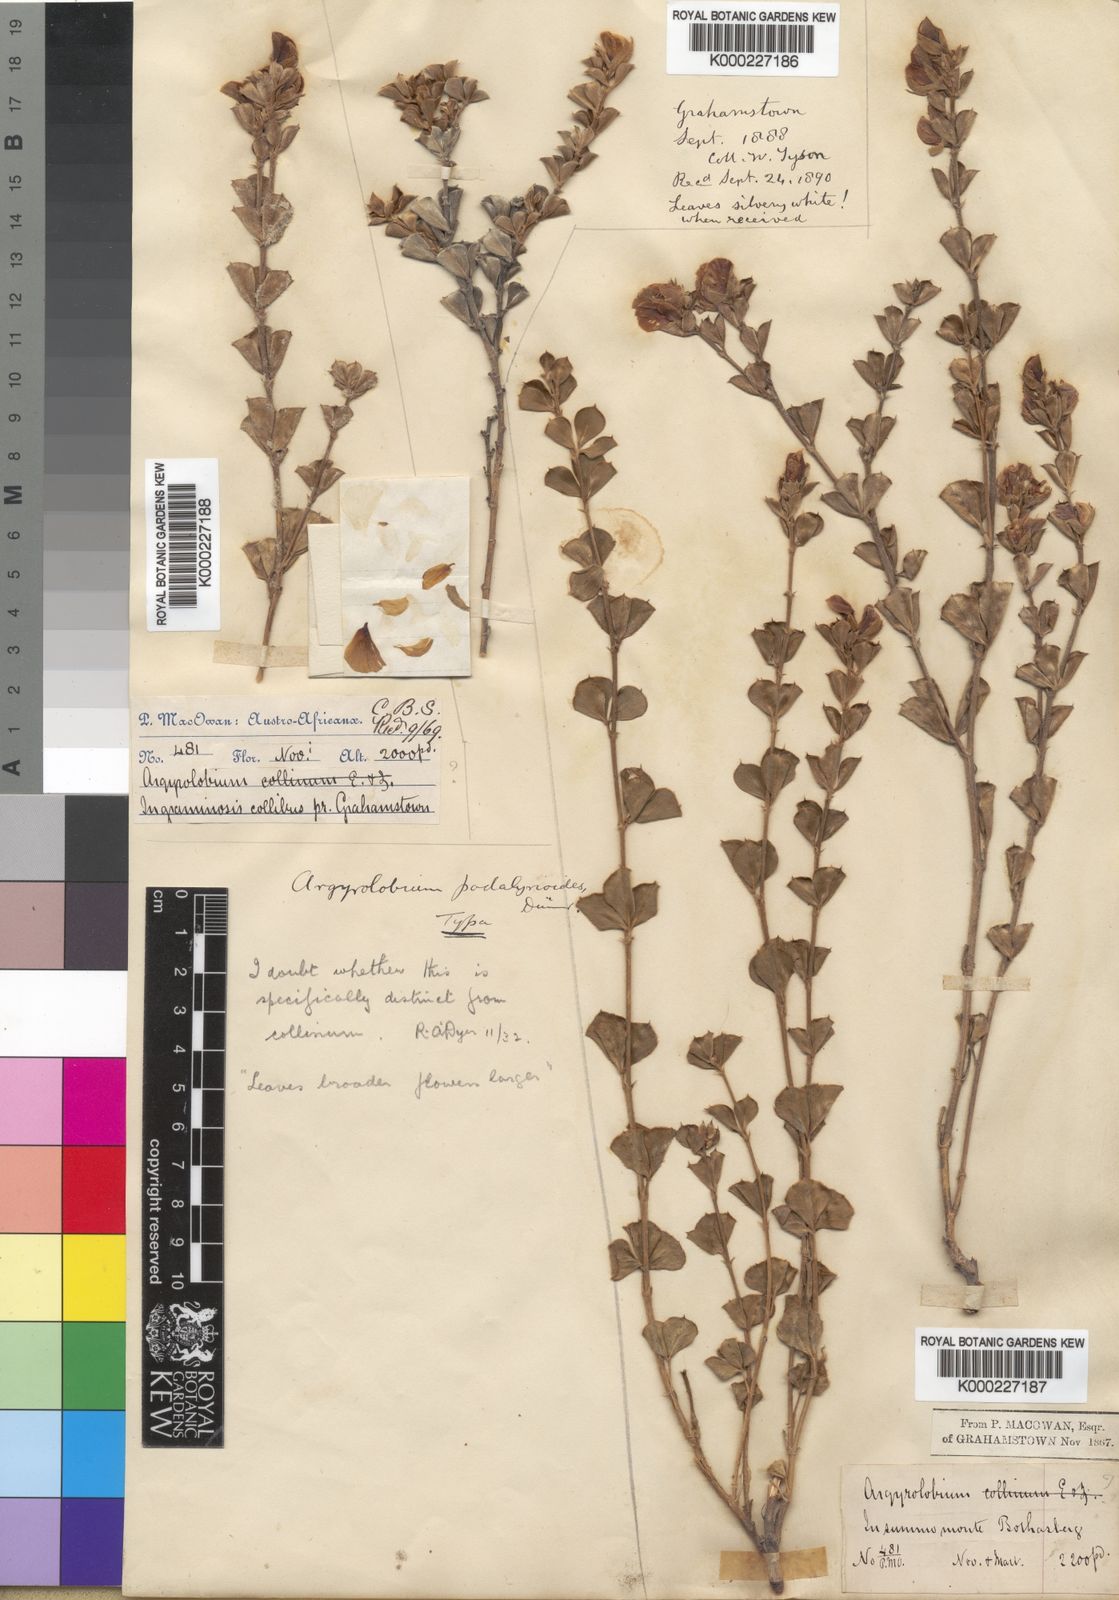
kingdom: Plantae
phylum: Tracheophyta
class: Magnoliopsida
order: Fabales
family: Fabaceae
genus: Argyrolobium
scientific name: Argyrolobium collinum
